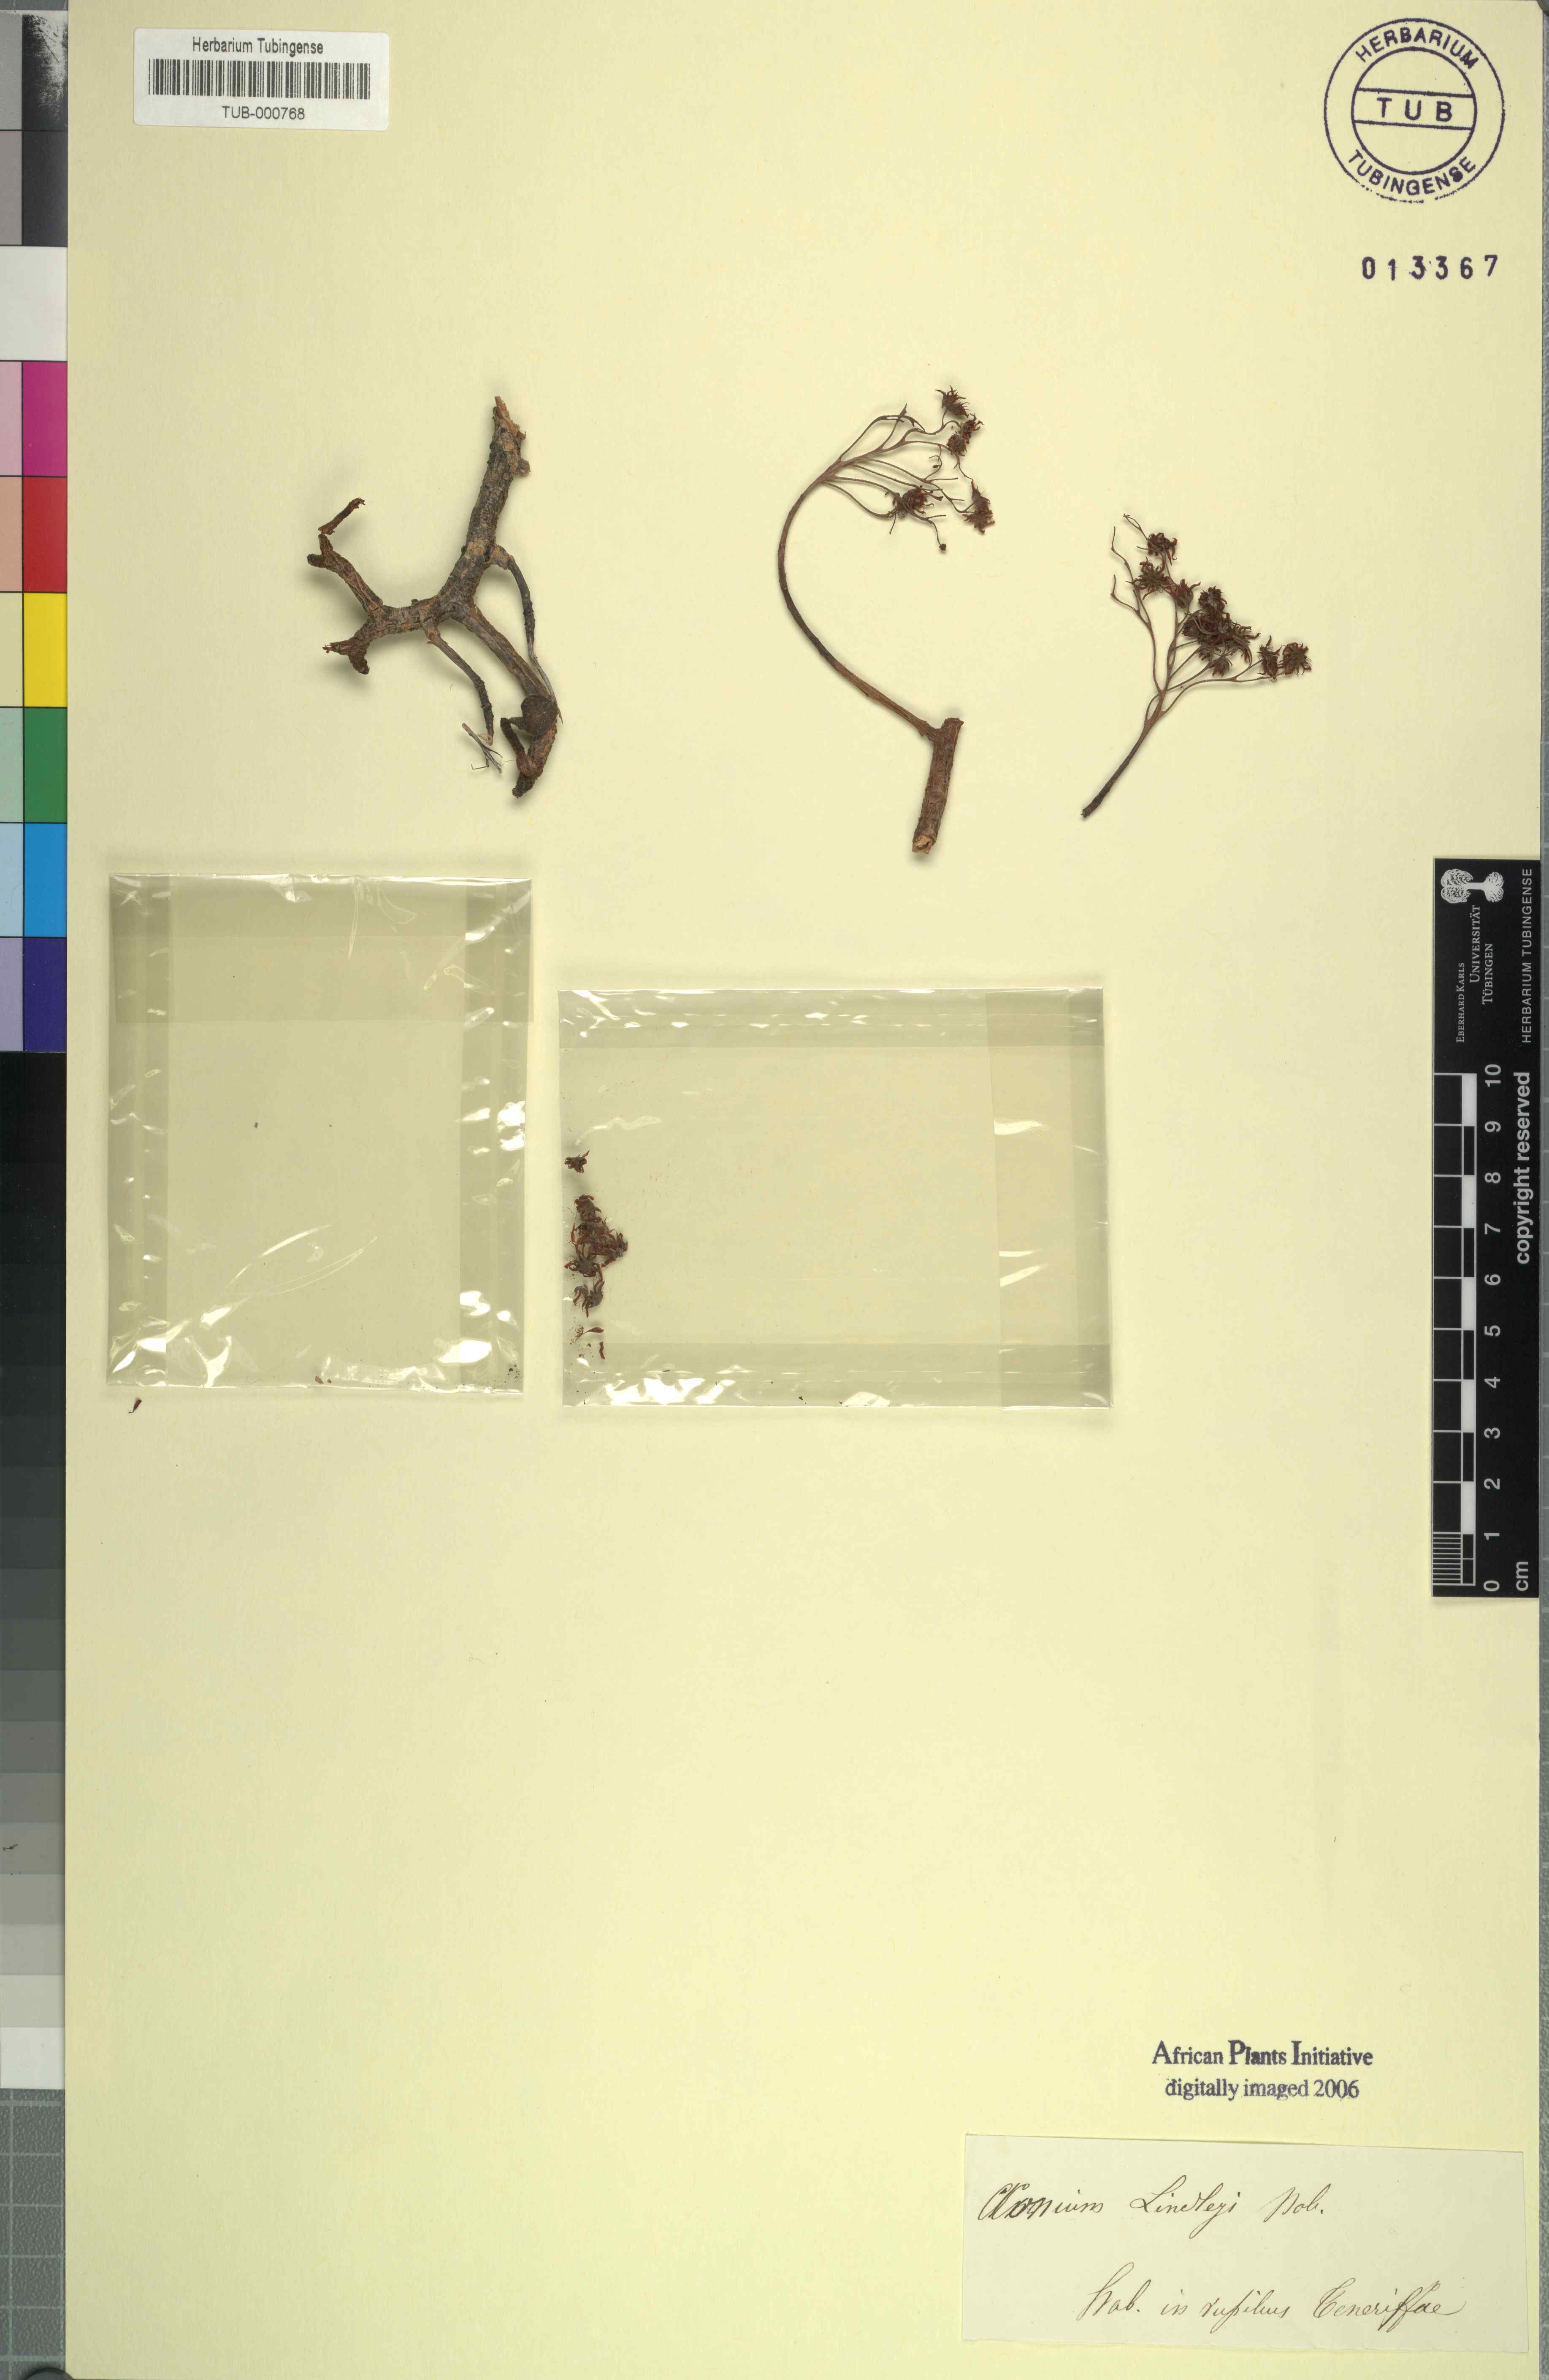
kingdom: Plantae
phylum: Tracheophyta
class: Magnoliopsida
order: Saxifragales
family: Crassulaceae
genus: Aeonium
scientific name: Aeonium lindleyi
